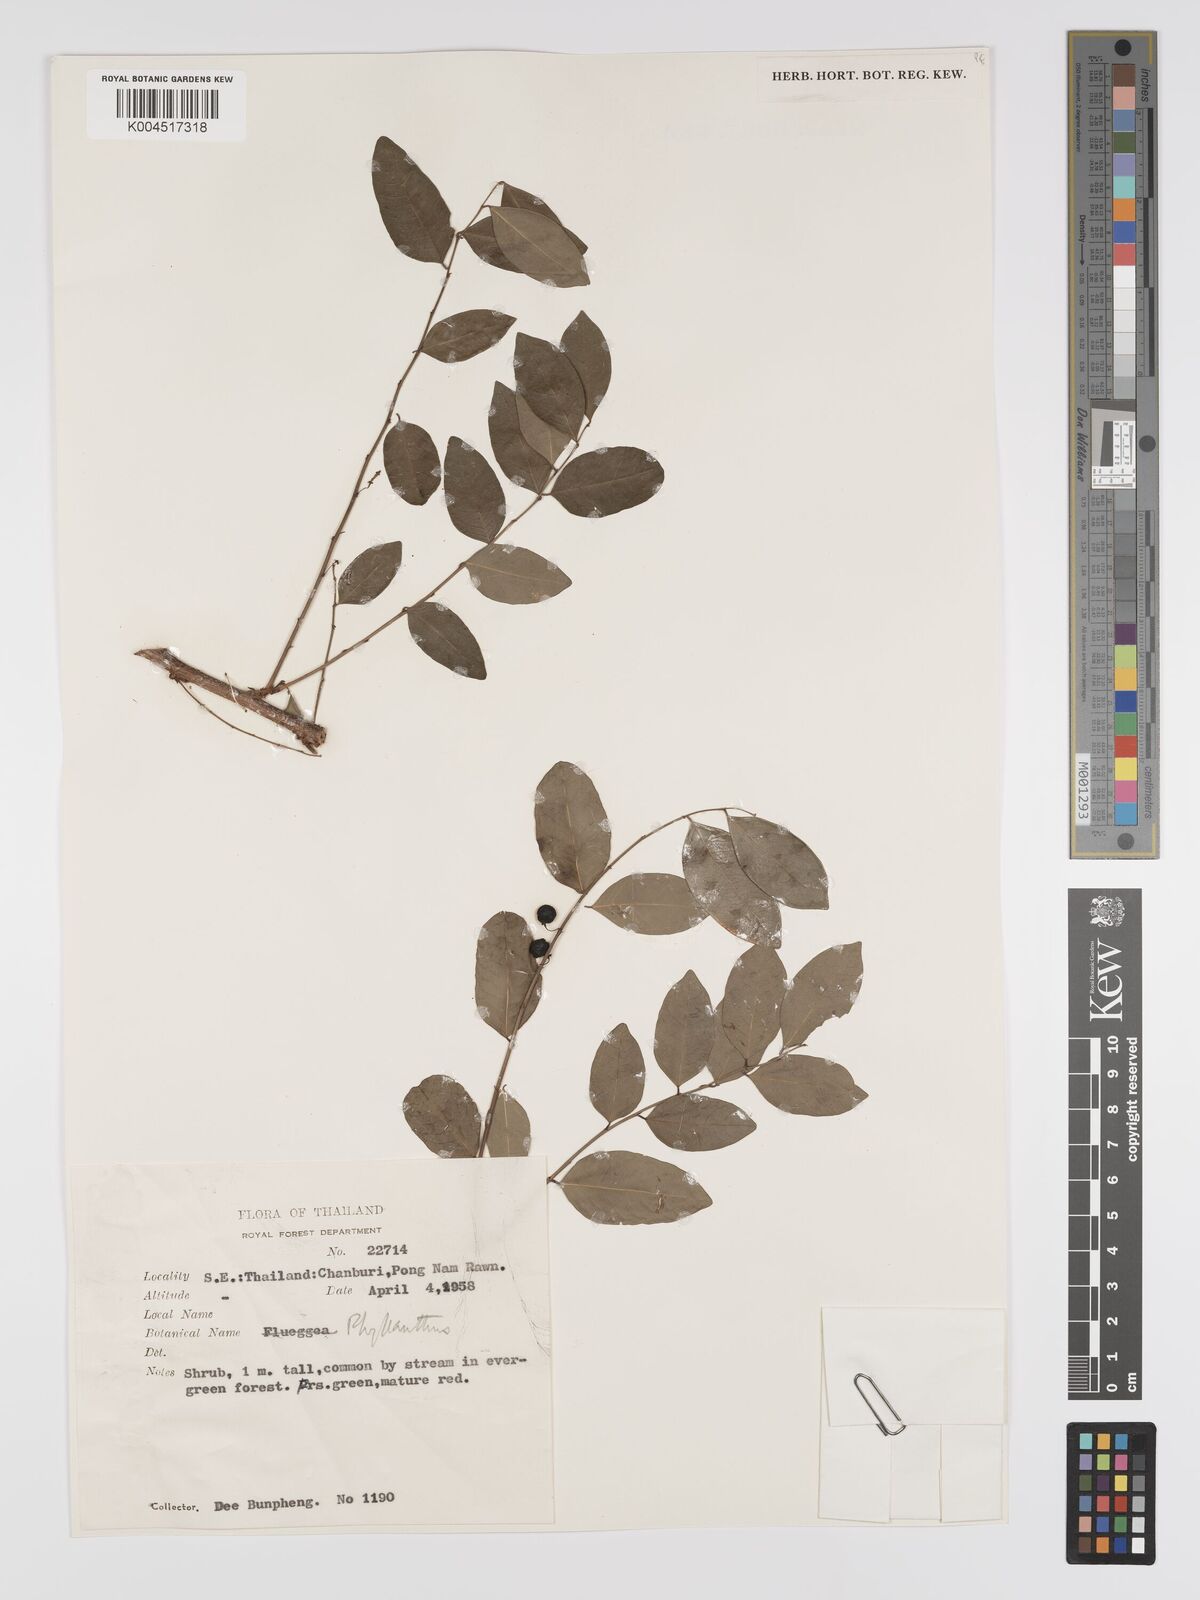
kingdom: Plantae
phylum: Tracheophyta
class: Magnoliopsida
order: Malpighiales
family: Phyllanthaceae
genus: Phyllanthus
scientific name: Phyllanthus reticulatus
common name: Potato bush
